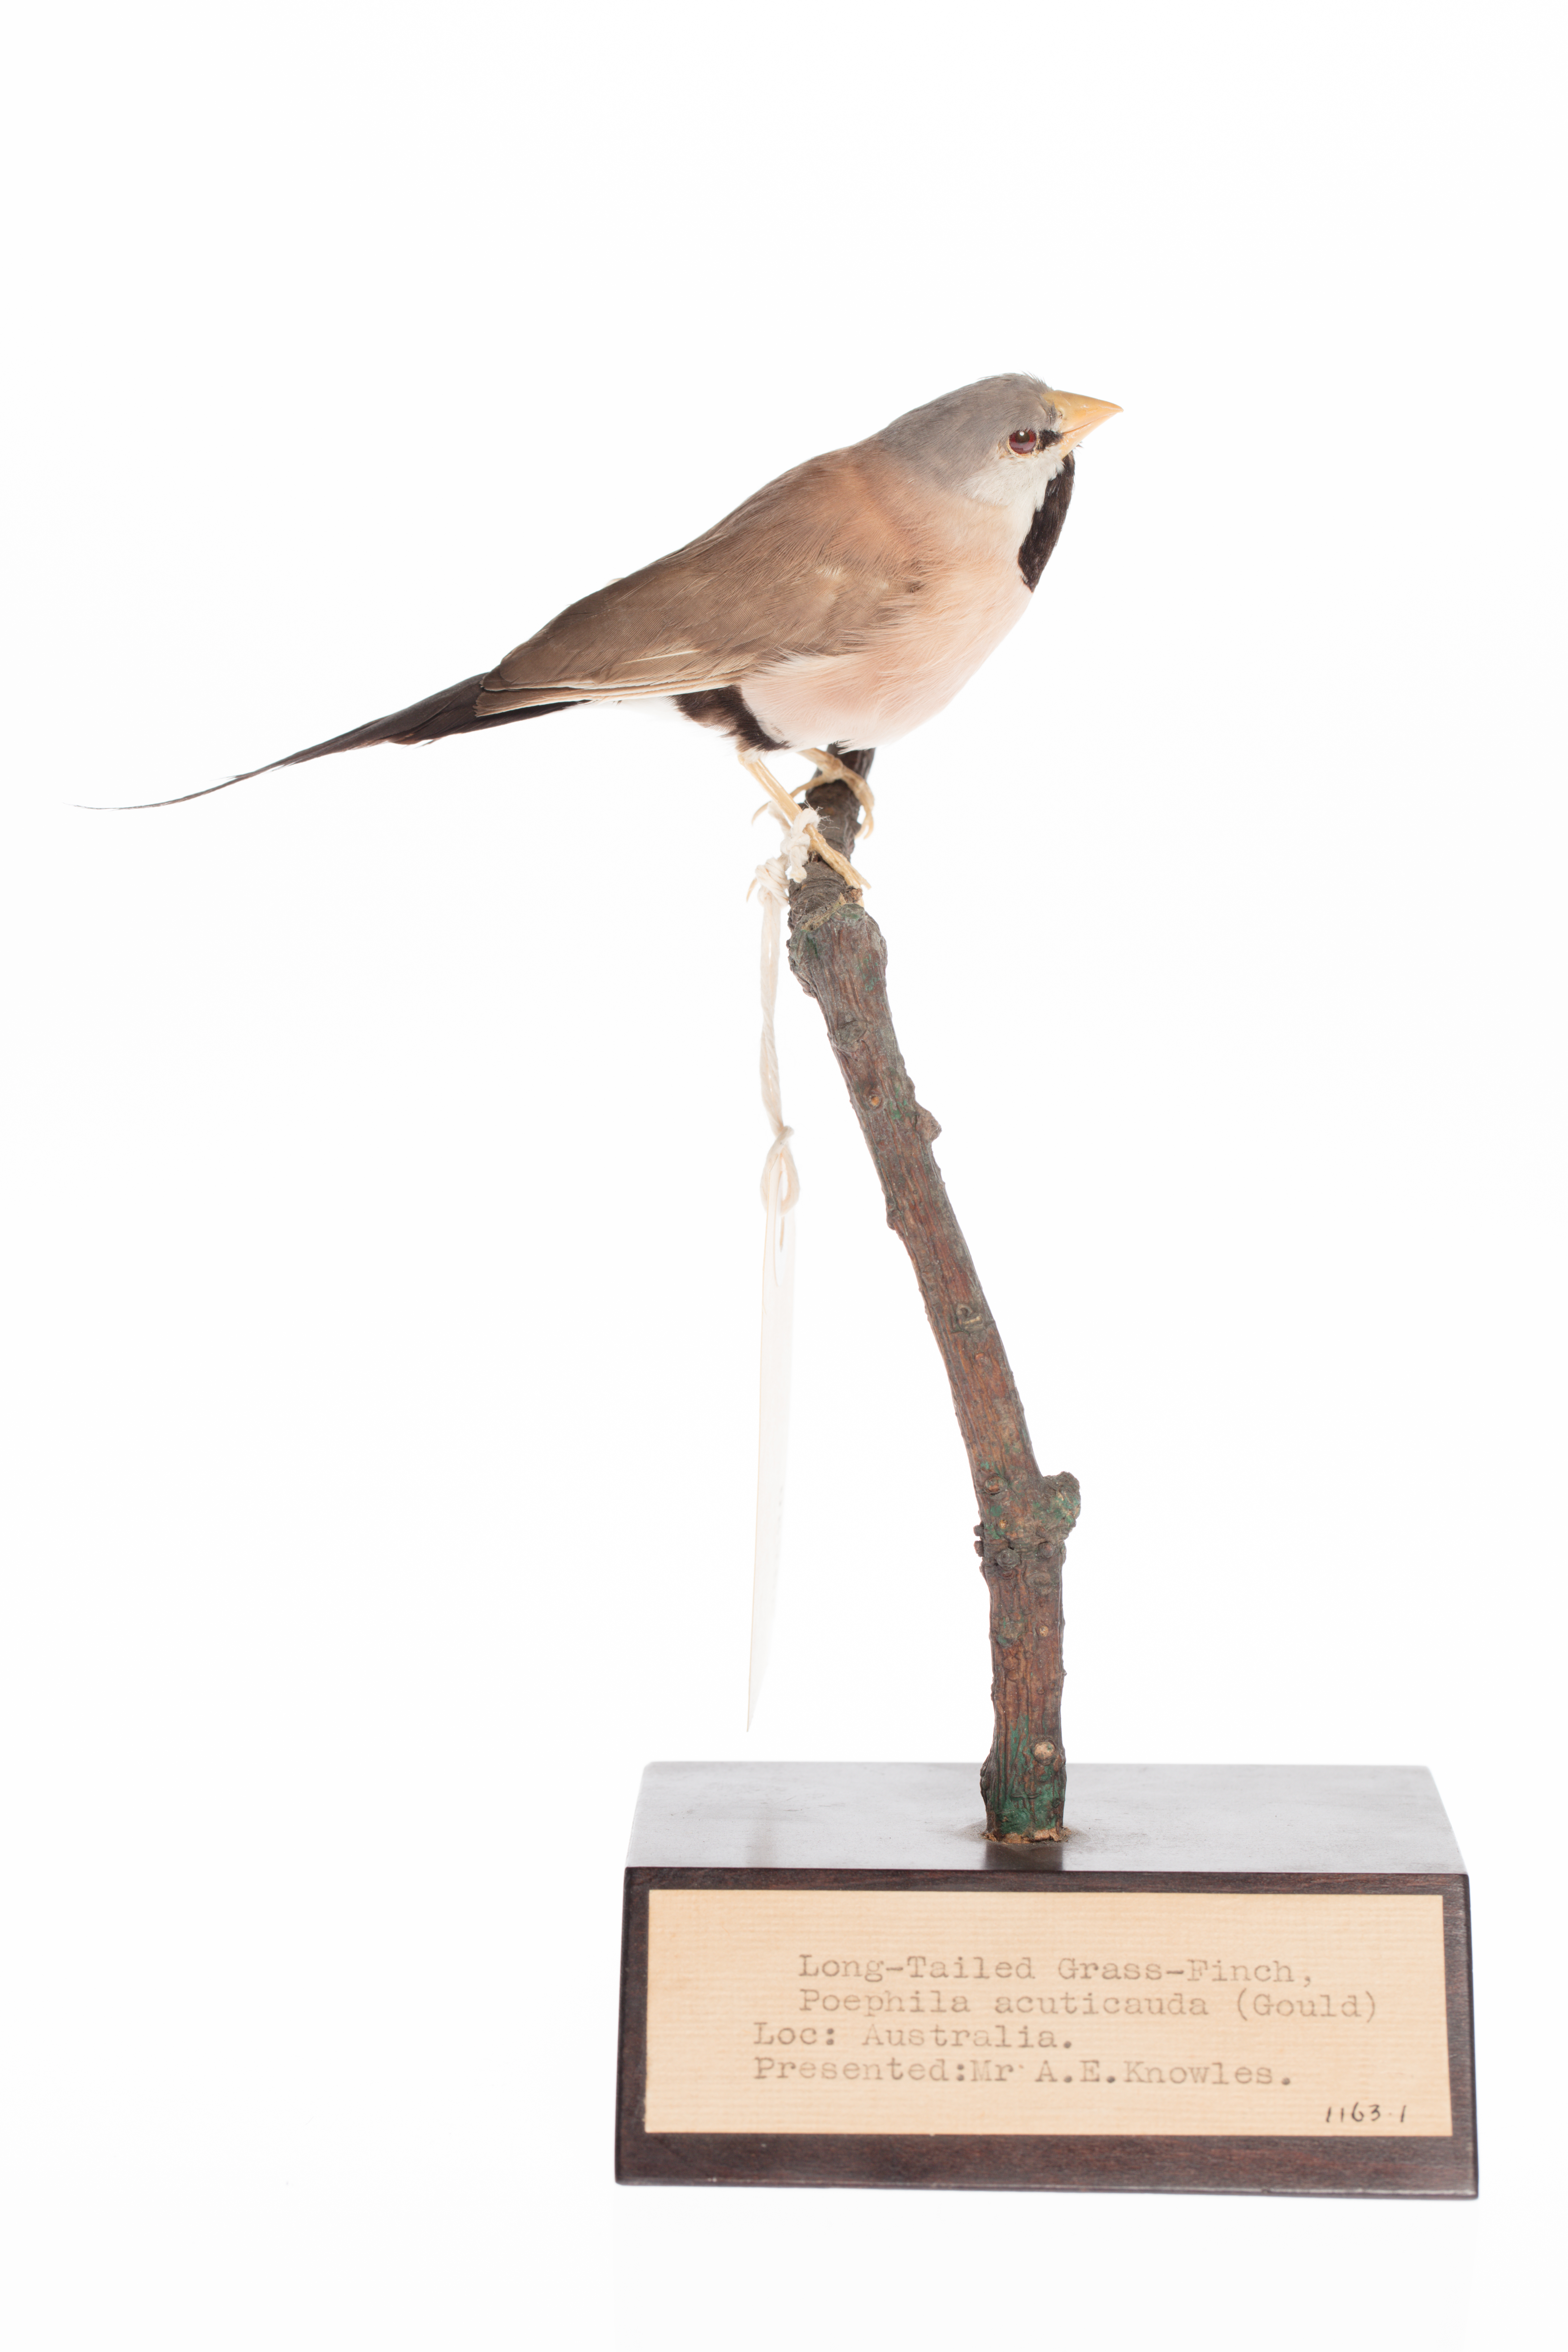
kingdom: Animalia
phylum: Chordata
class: Aves
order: Passeriformes
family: Estrildidae
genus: Poephila
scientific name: Poephila acuticauda
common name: Long-tailed finch
